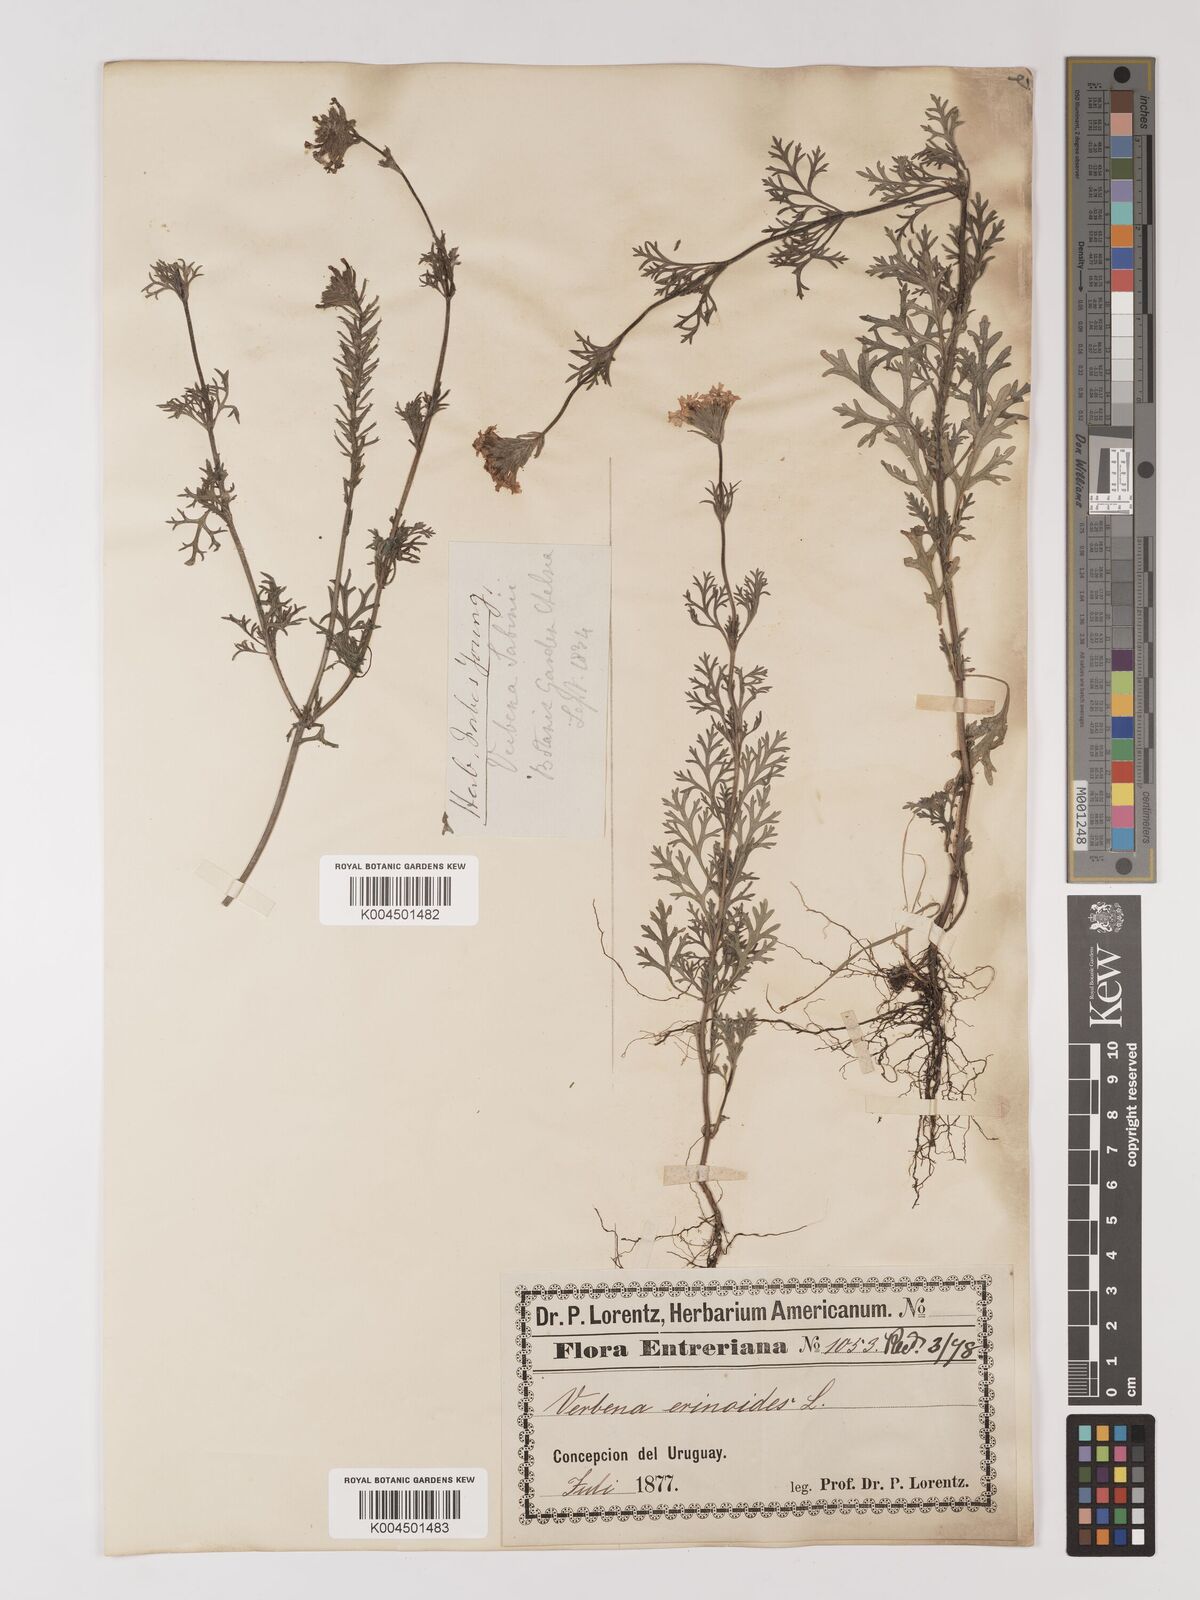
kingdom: Plantae
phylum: Tracheophyta
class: Magnoliopsida
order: Lamiales
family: Verbenaceae
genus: Verbena
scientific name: Verbena tenera
